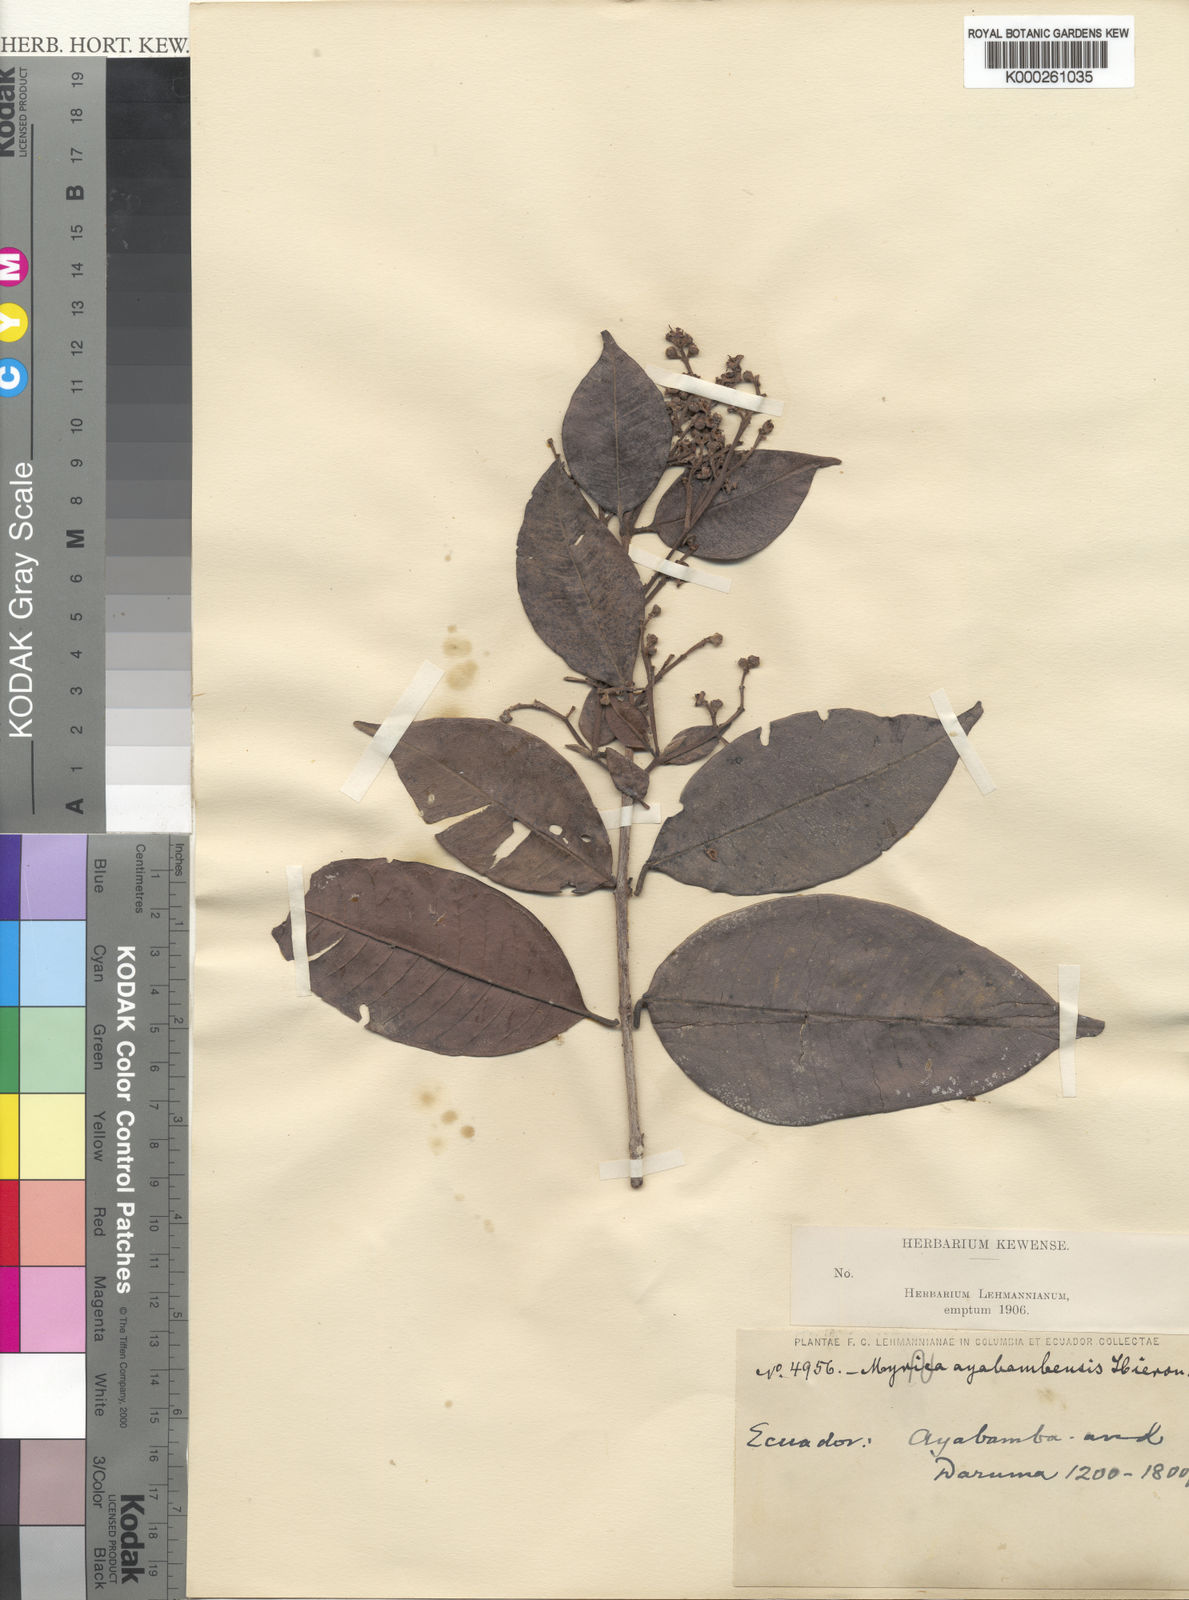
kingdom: Plantae
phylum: Tracheophyta
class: Magnoliopsida
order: Myrtales
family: Myrtaceae
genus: Myrcia
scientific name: Myrcia ayabambensis
